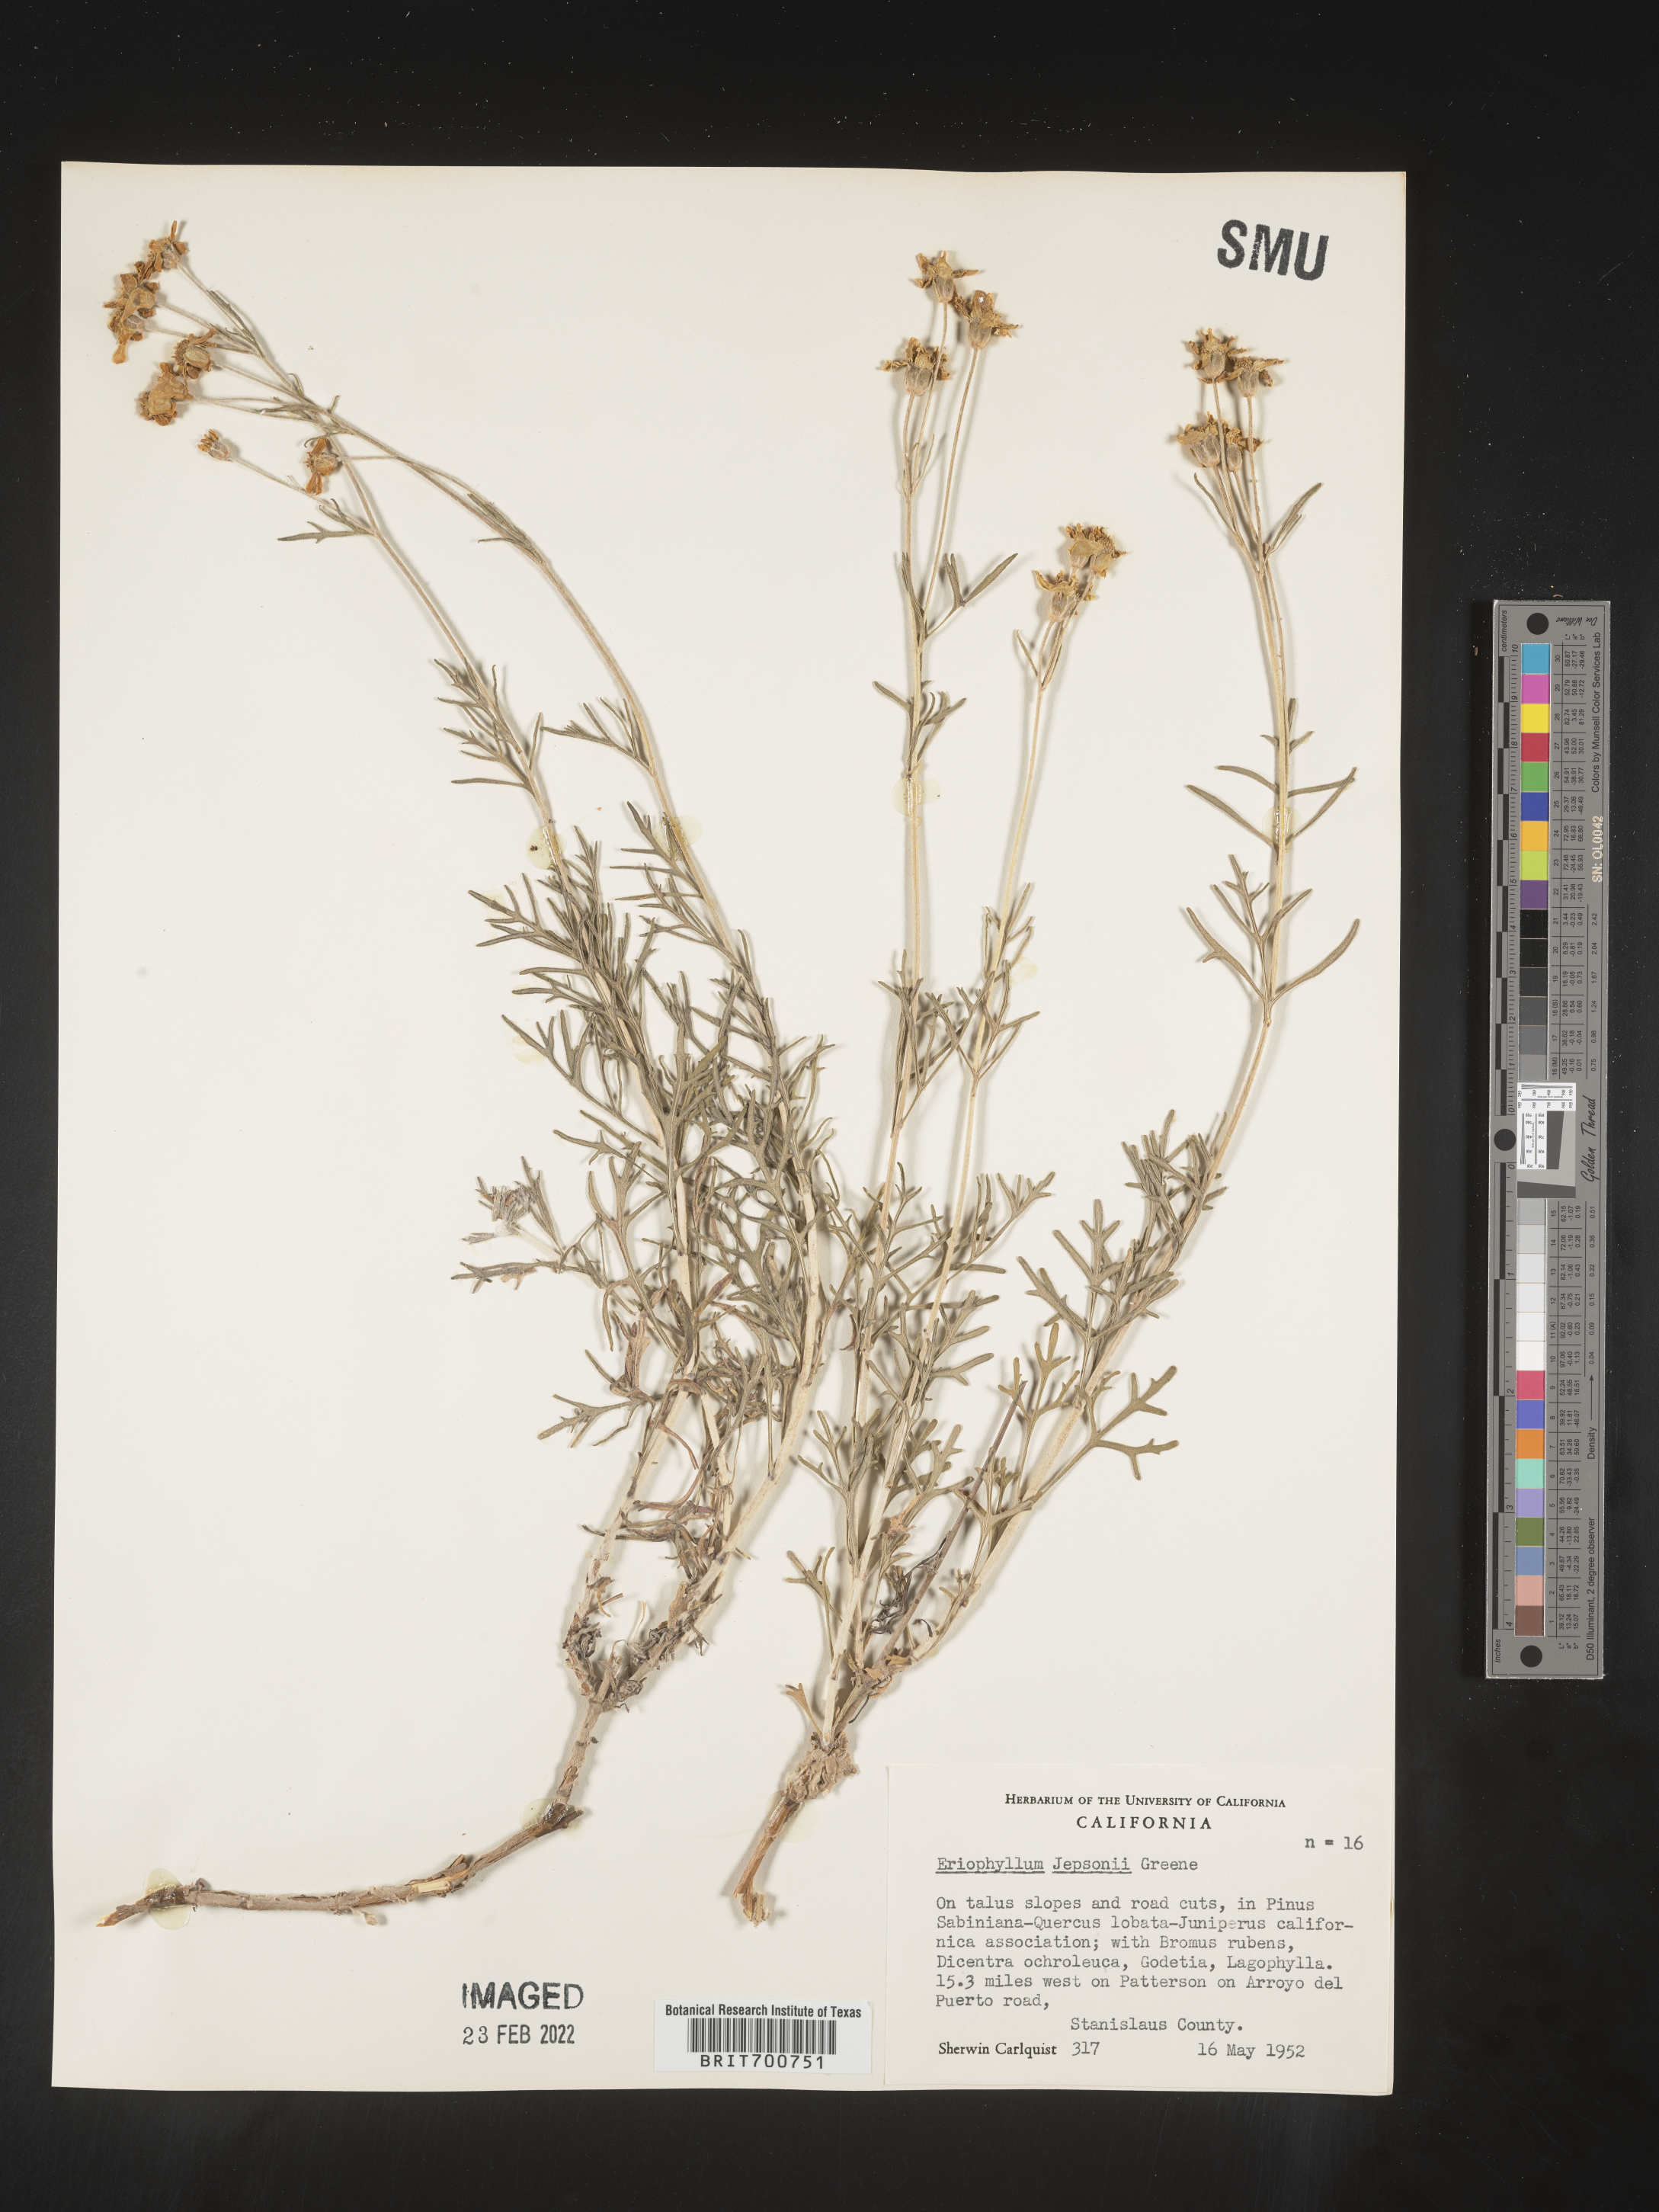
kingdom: Plantae
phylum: Tracheophyta
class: Magnoliopsida
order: Asterales
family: Asteraceae
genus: Eriophyllum
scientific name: Eriophyllum jepsonii
